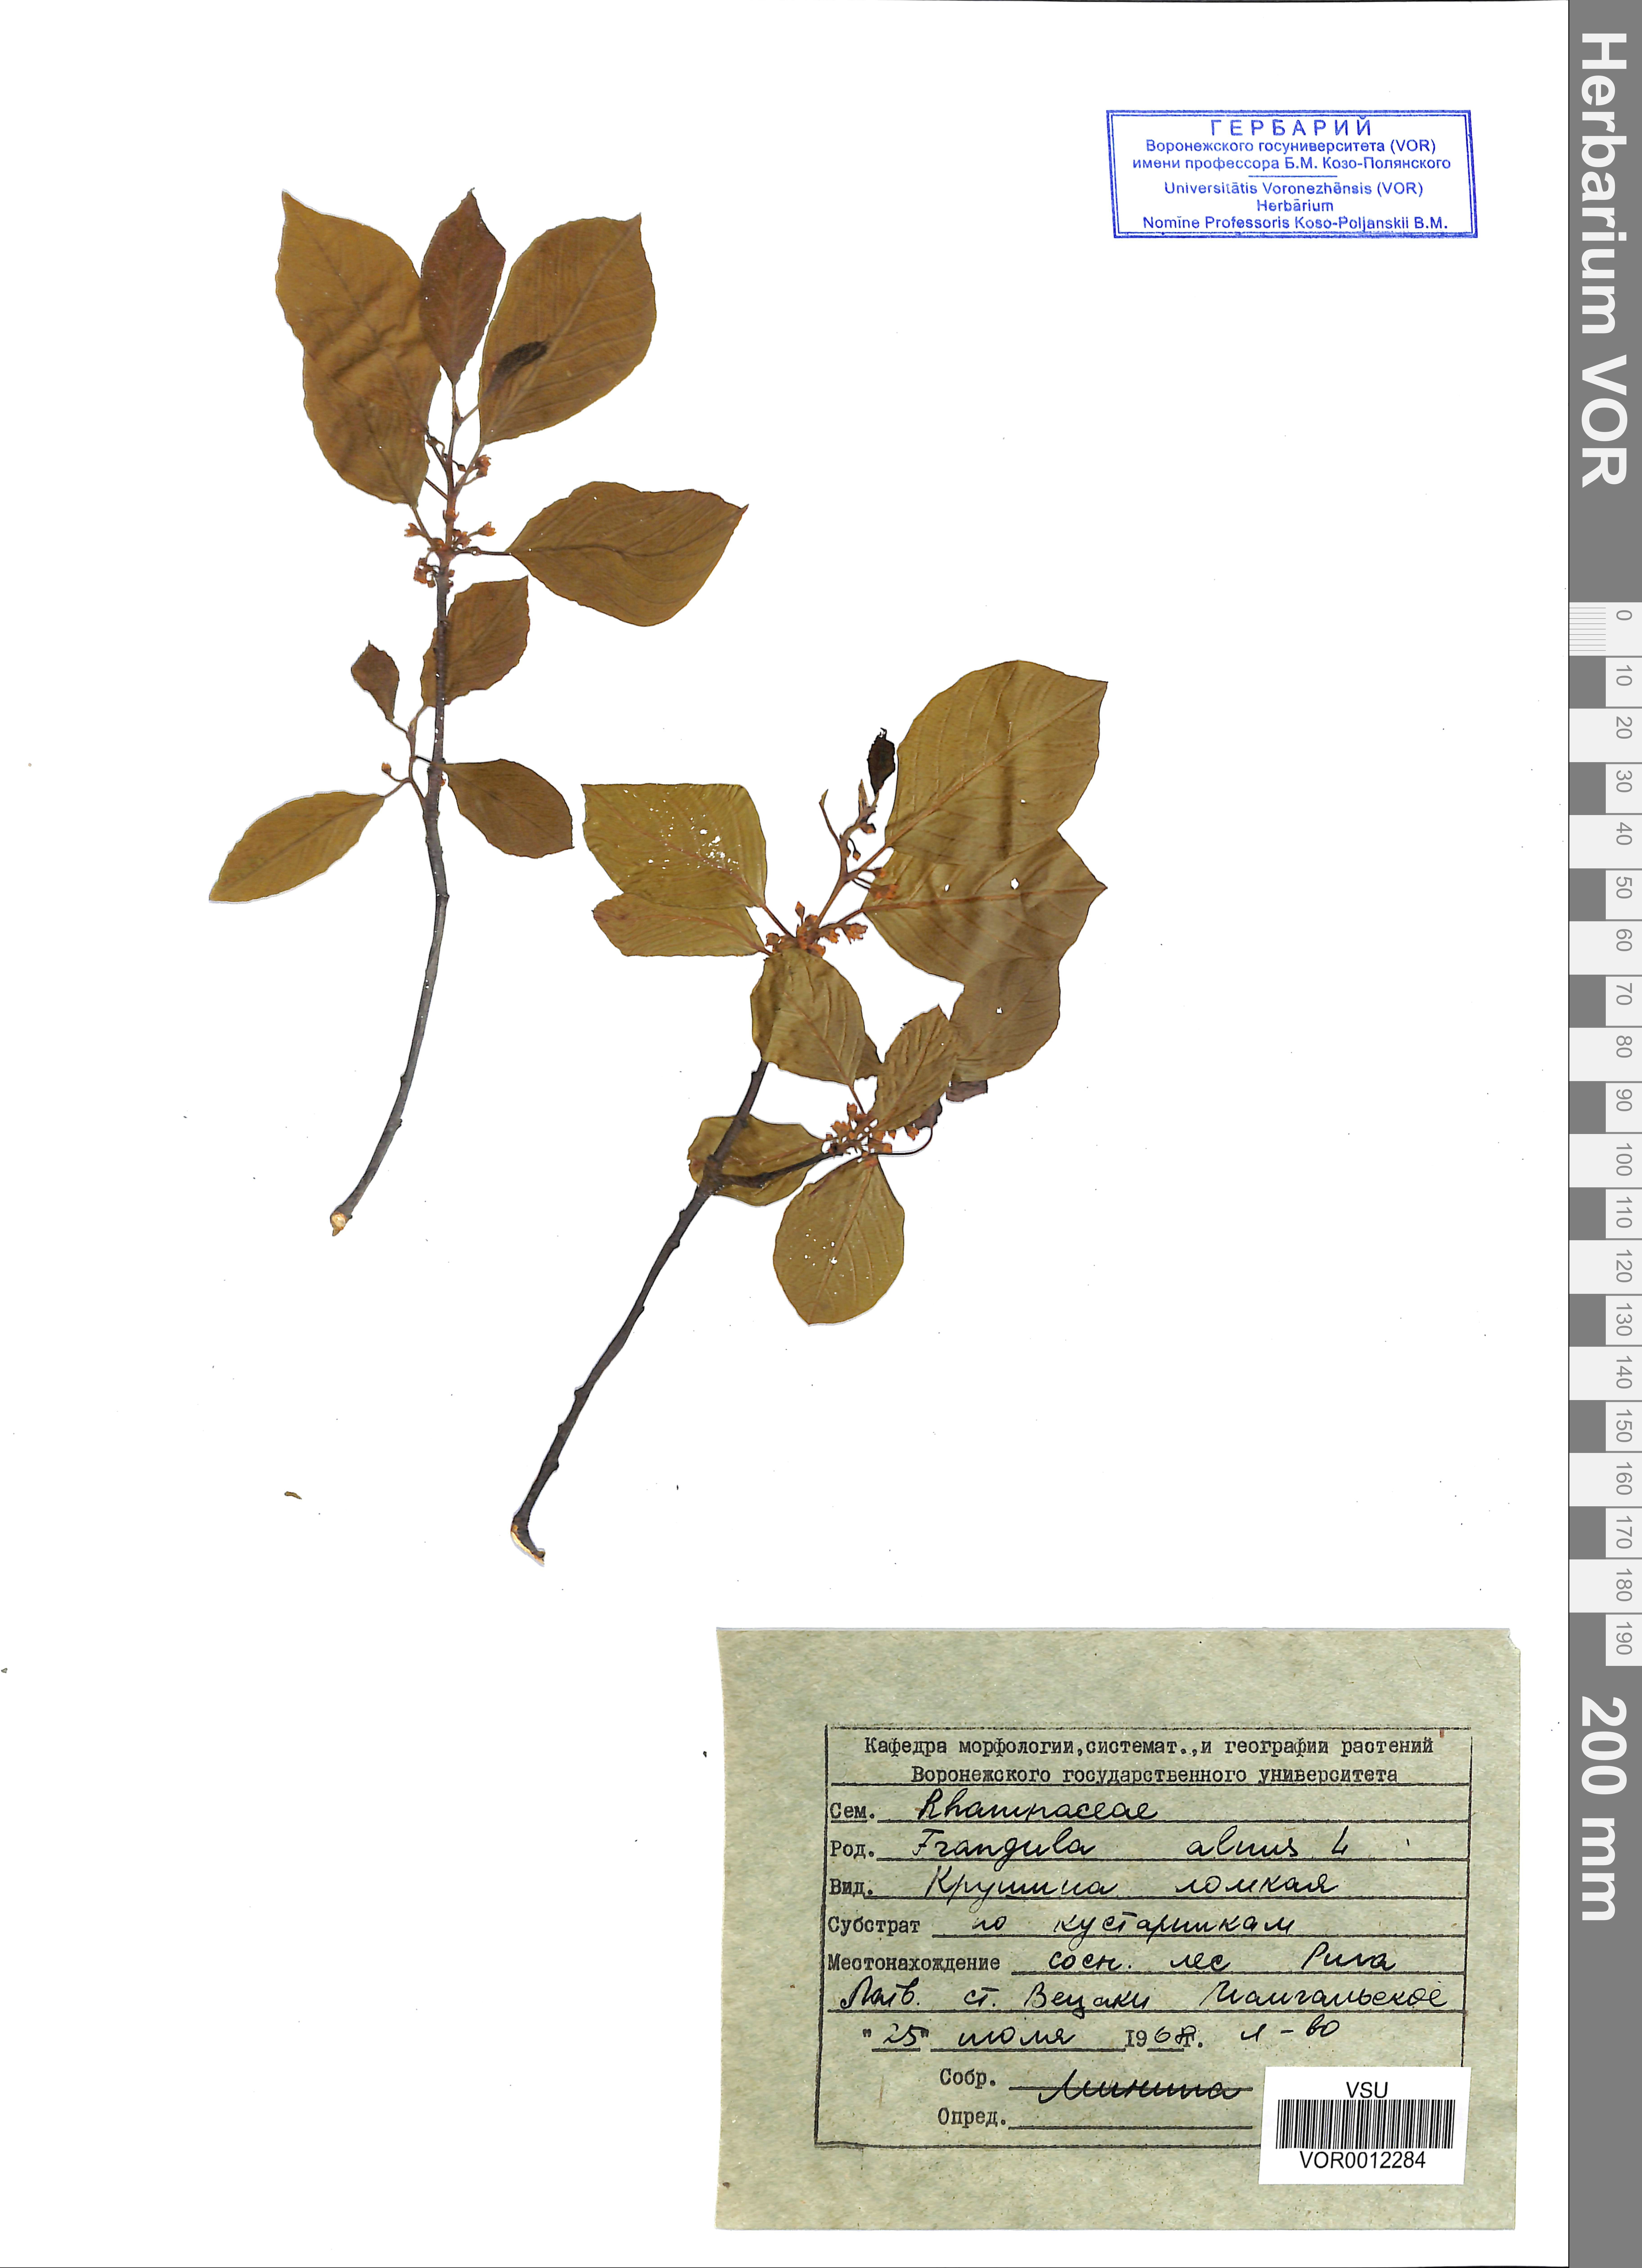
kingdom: Plantae
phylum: Tracheophyta
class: Magnoliopsida
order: Rosales
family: Rhamnaceae
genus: Frangula
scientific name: Frangula alnus
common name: Alder buckthorn
